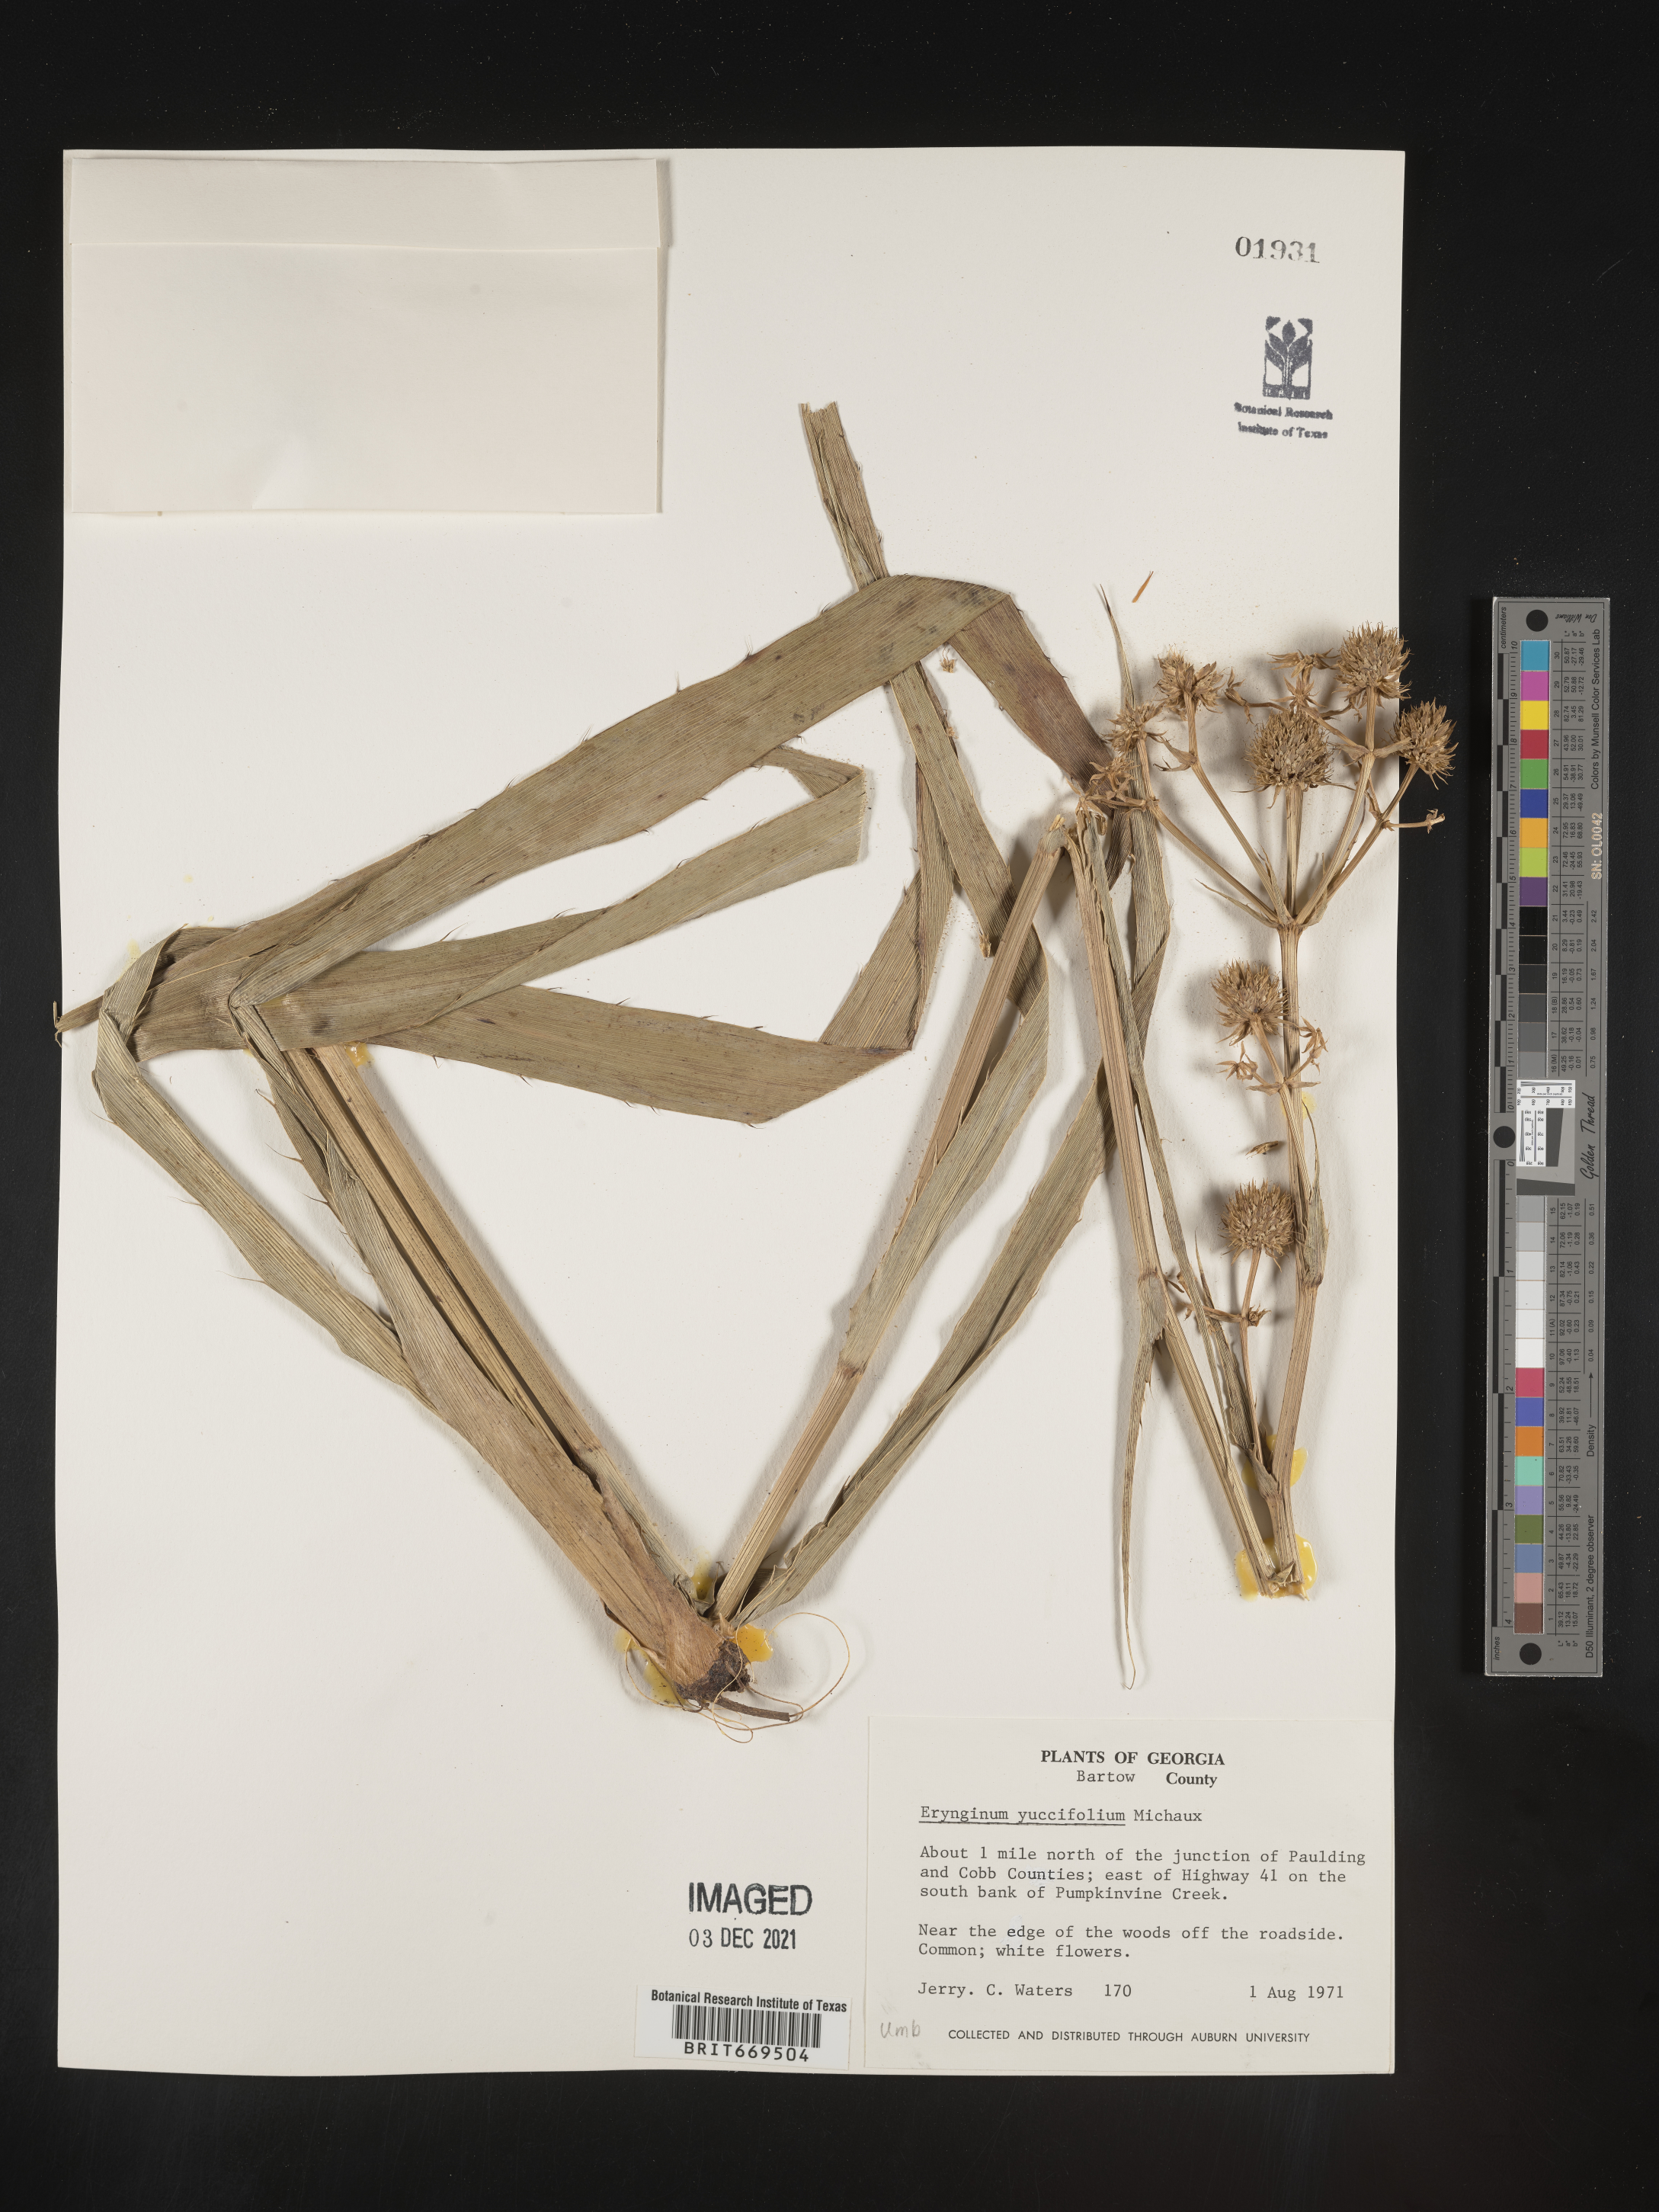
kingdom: Plantae
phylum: Tracheophyta
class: Magnoliopsida
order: Apiales
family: Apiaceae
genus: Eryngium
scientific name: Eryngium yuccifolium
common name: Button eryngo
